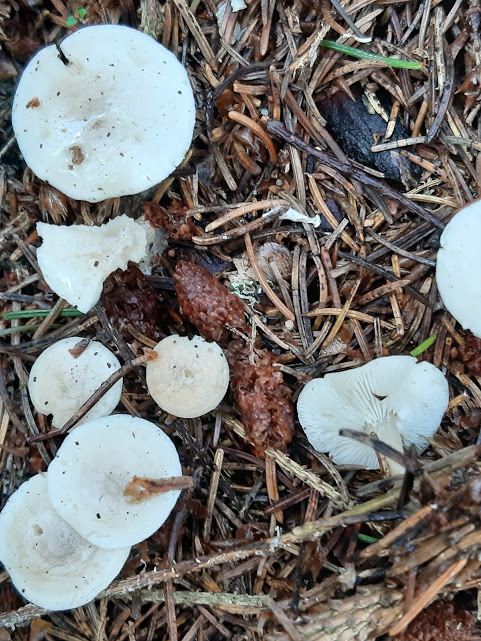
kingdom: Fungi
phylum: Basidiomycota
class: Agaricomycetes
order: Agaricales
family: Tricholomataceae
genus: Clitocybe
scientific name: Clitocybe
